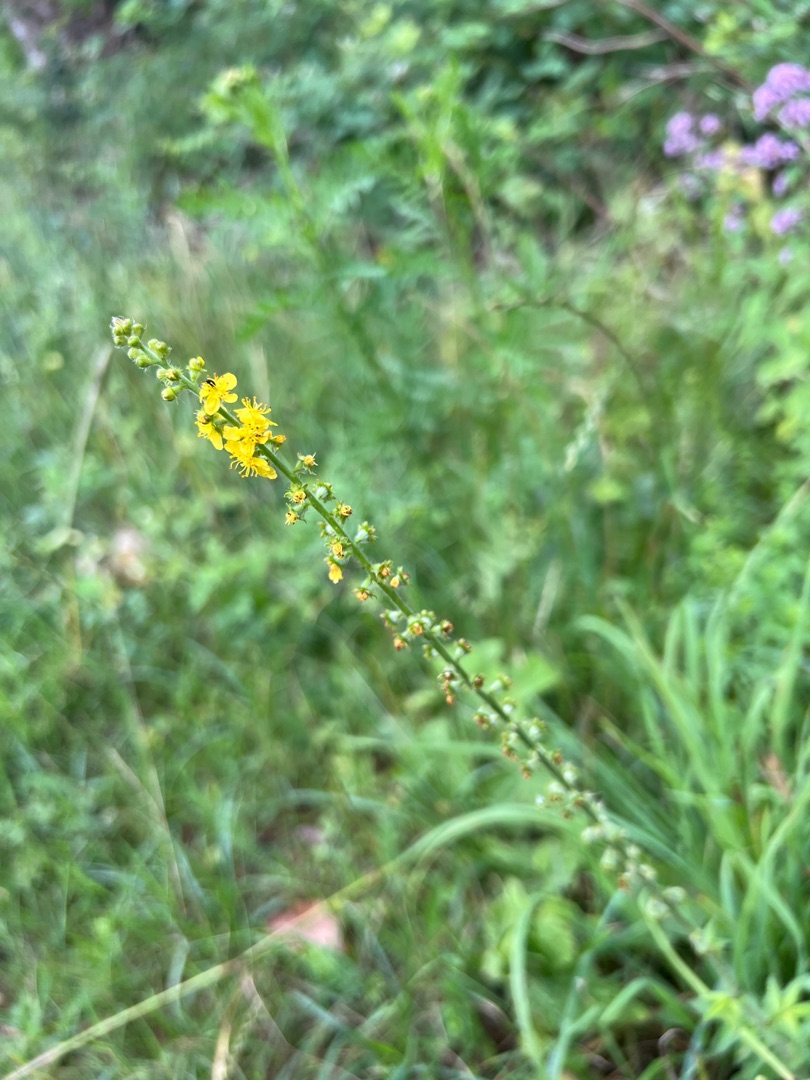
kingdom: Plantae
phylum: Tracheophyta
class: Magnoliopsida
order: Rosales
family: Rosaceae
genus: Agrimonia
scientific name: Agrimonia eupatoria
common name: Almindelig agermåne
